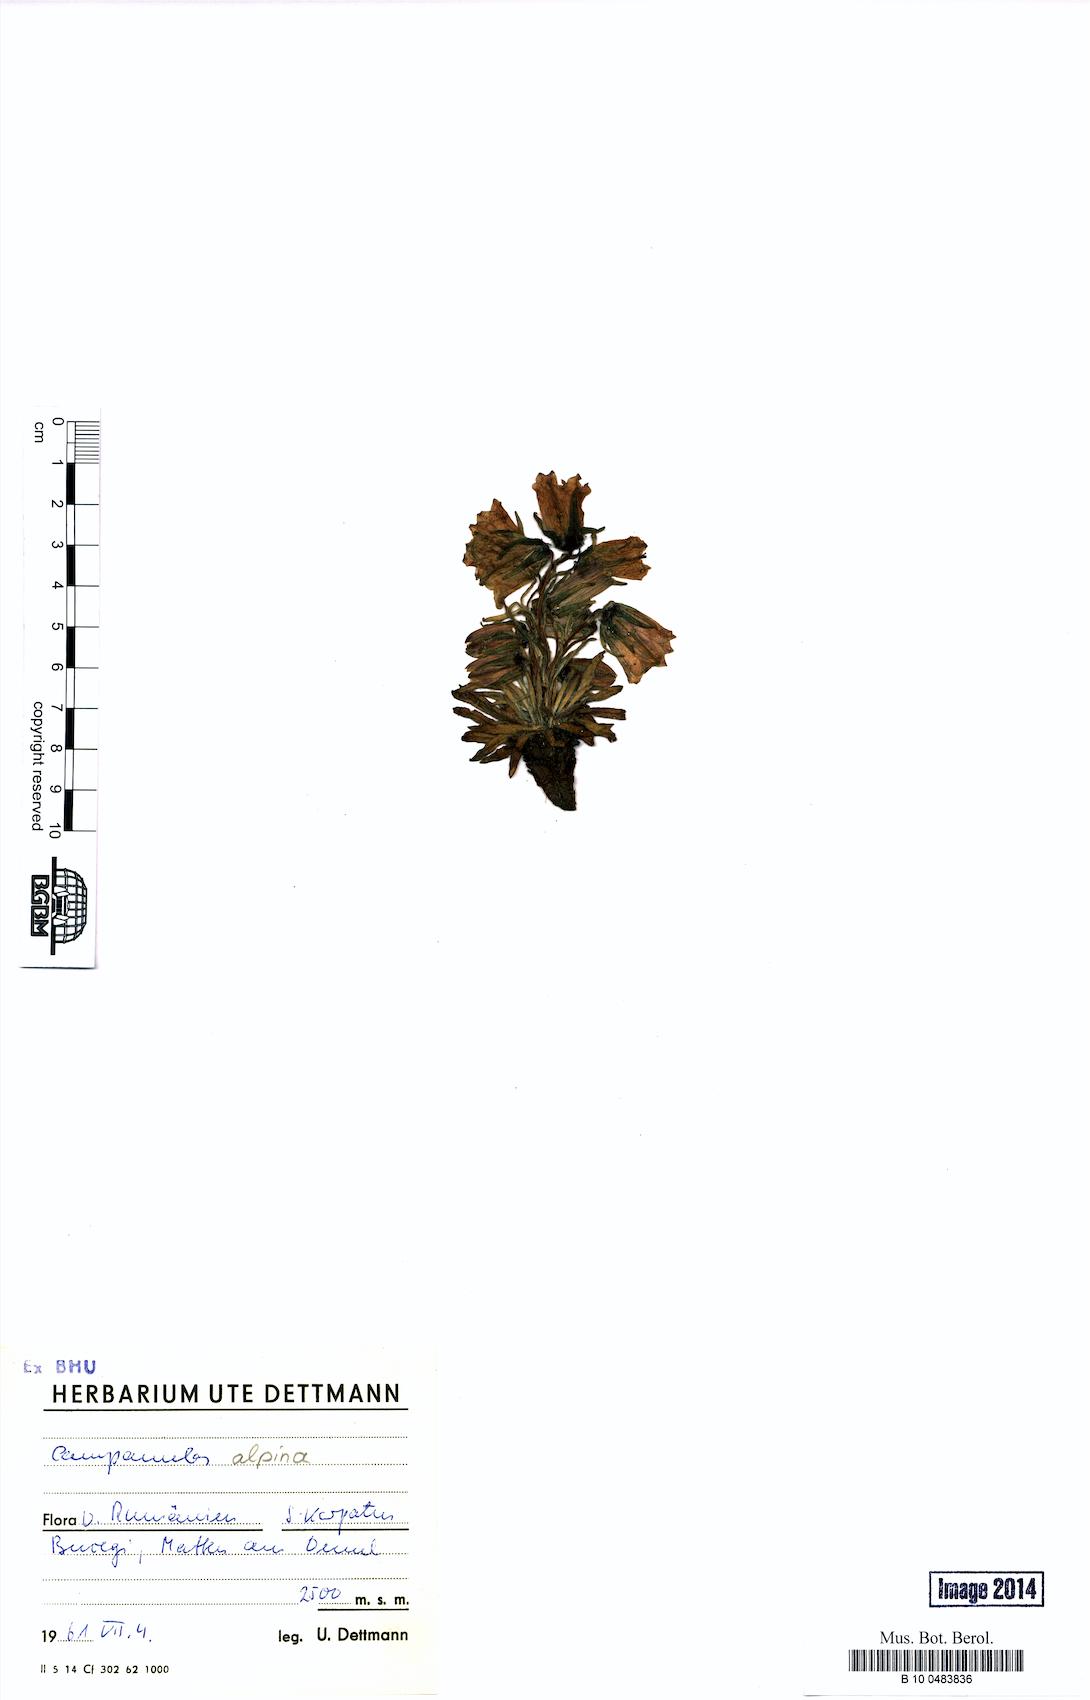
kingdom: Plantae
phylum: Tracheophyta
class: Magnoliopsida
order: Asterales
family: Campanulaceae
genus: Campanula
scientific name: Campanula alpina
